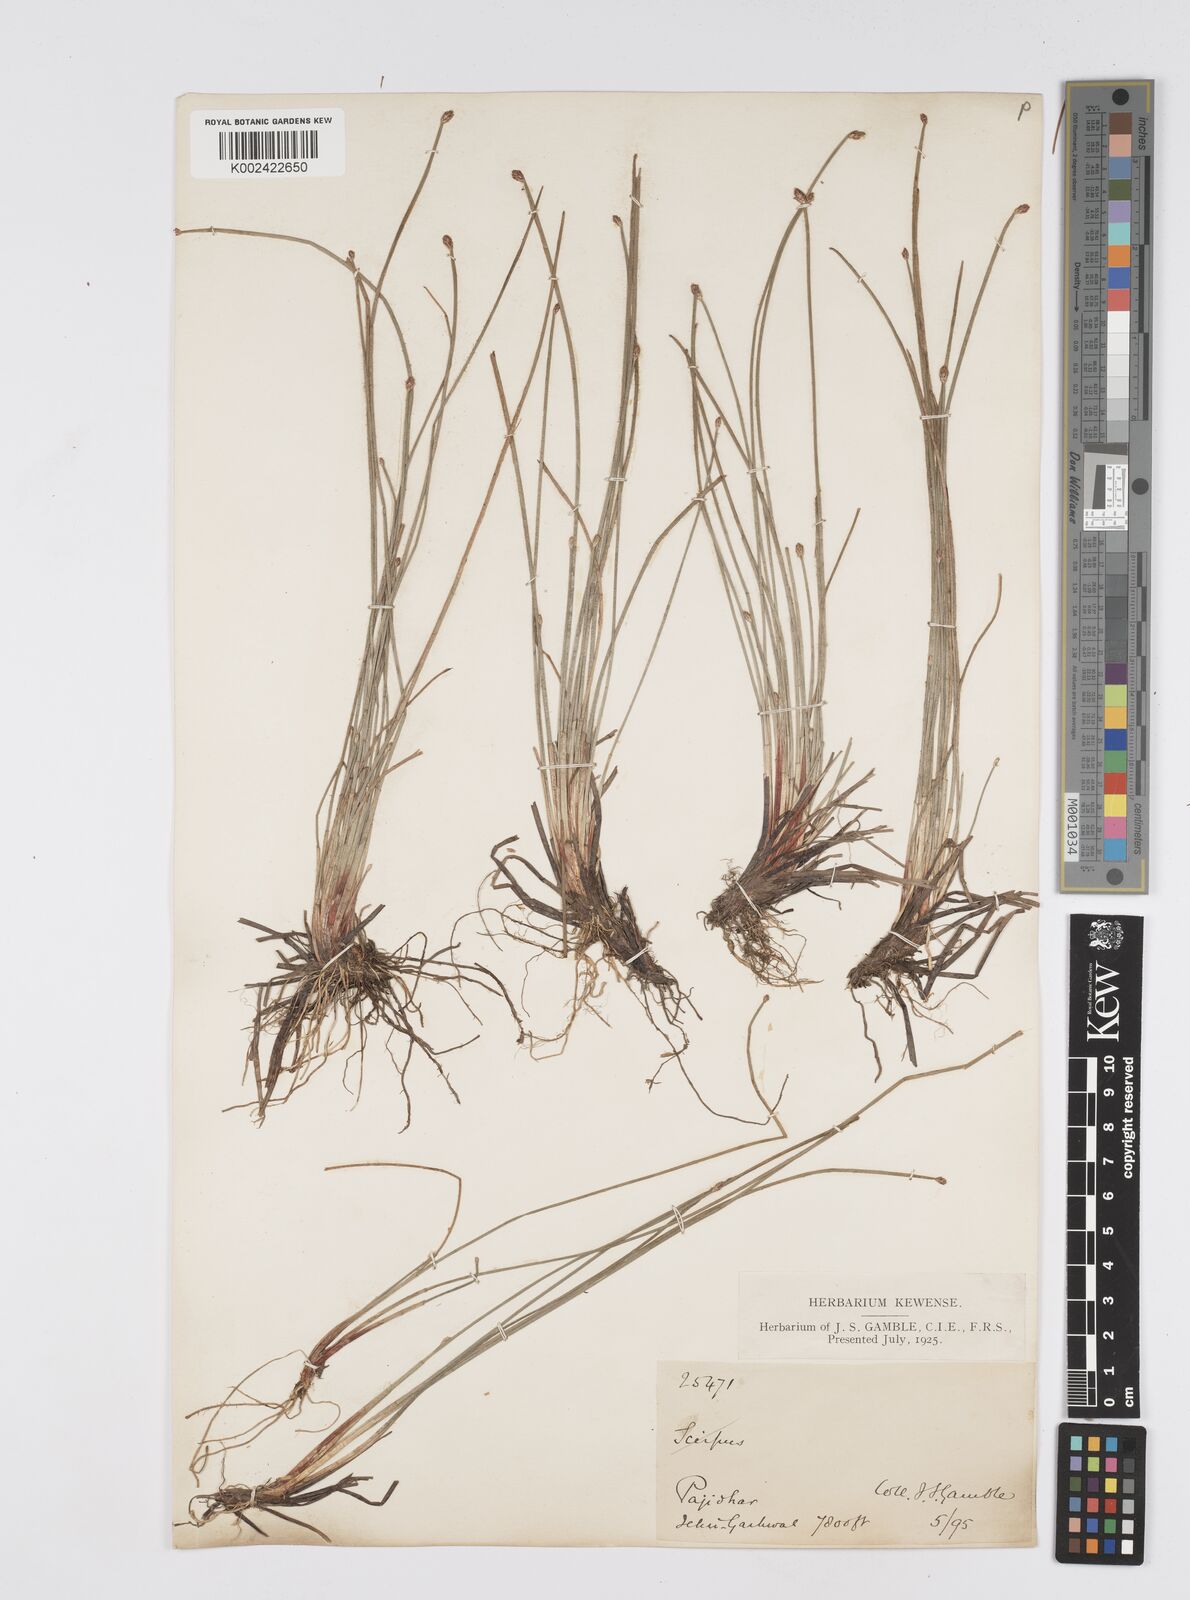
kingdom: Plantae
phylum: Tracheophyta
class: Liliopsida
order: Poales
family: Cyperaceae
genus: Eleocharis
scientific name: Eleocharis pellucida
